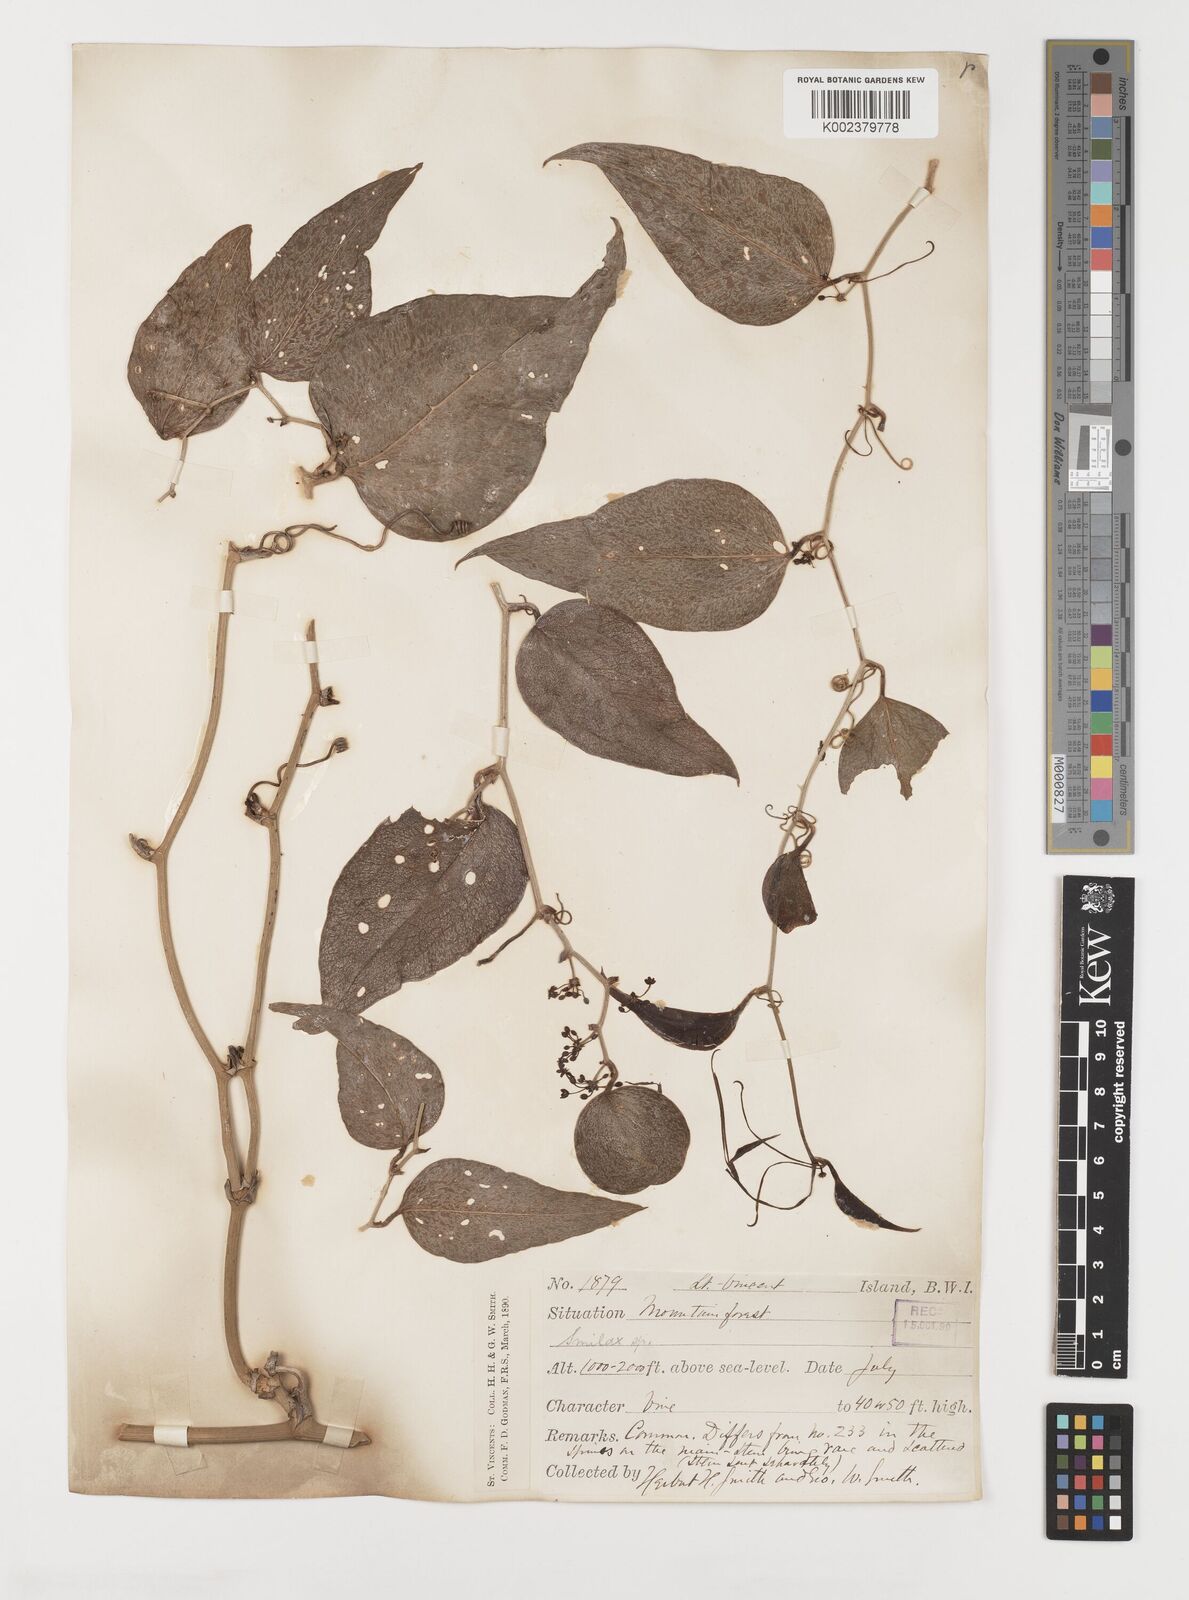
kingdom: Plantae
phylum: Tracheophyta
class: Liliopsida
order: Liliales
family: Smilacaceae
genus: Smilax
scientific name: Smilax oblongata
